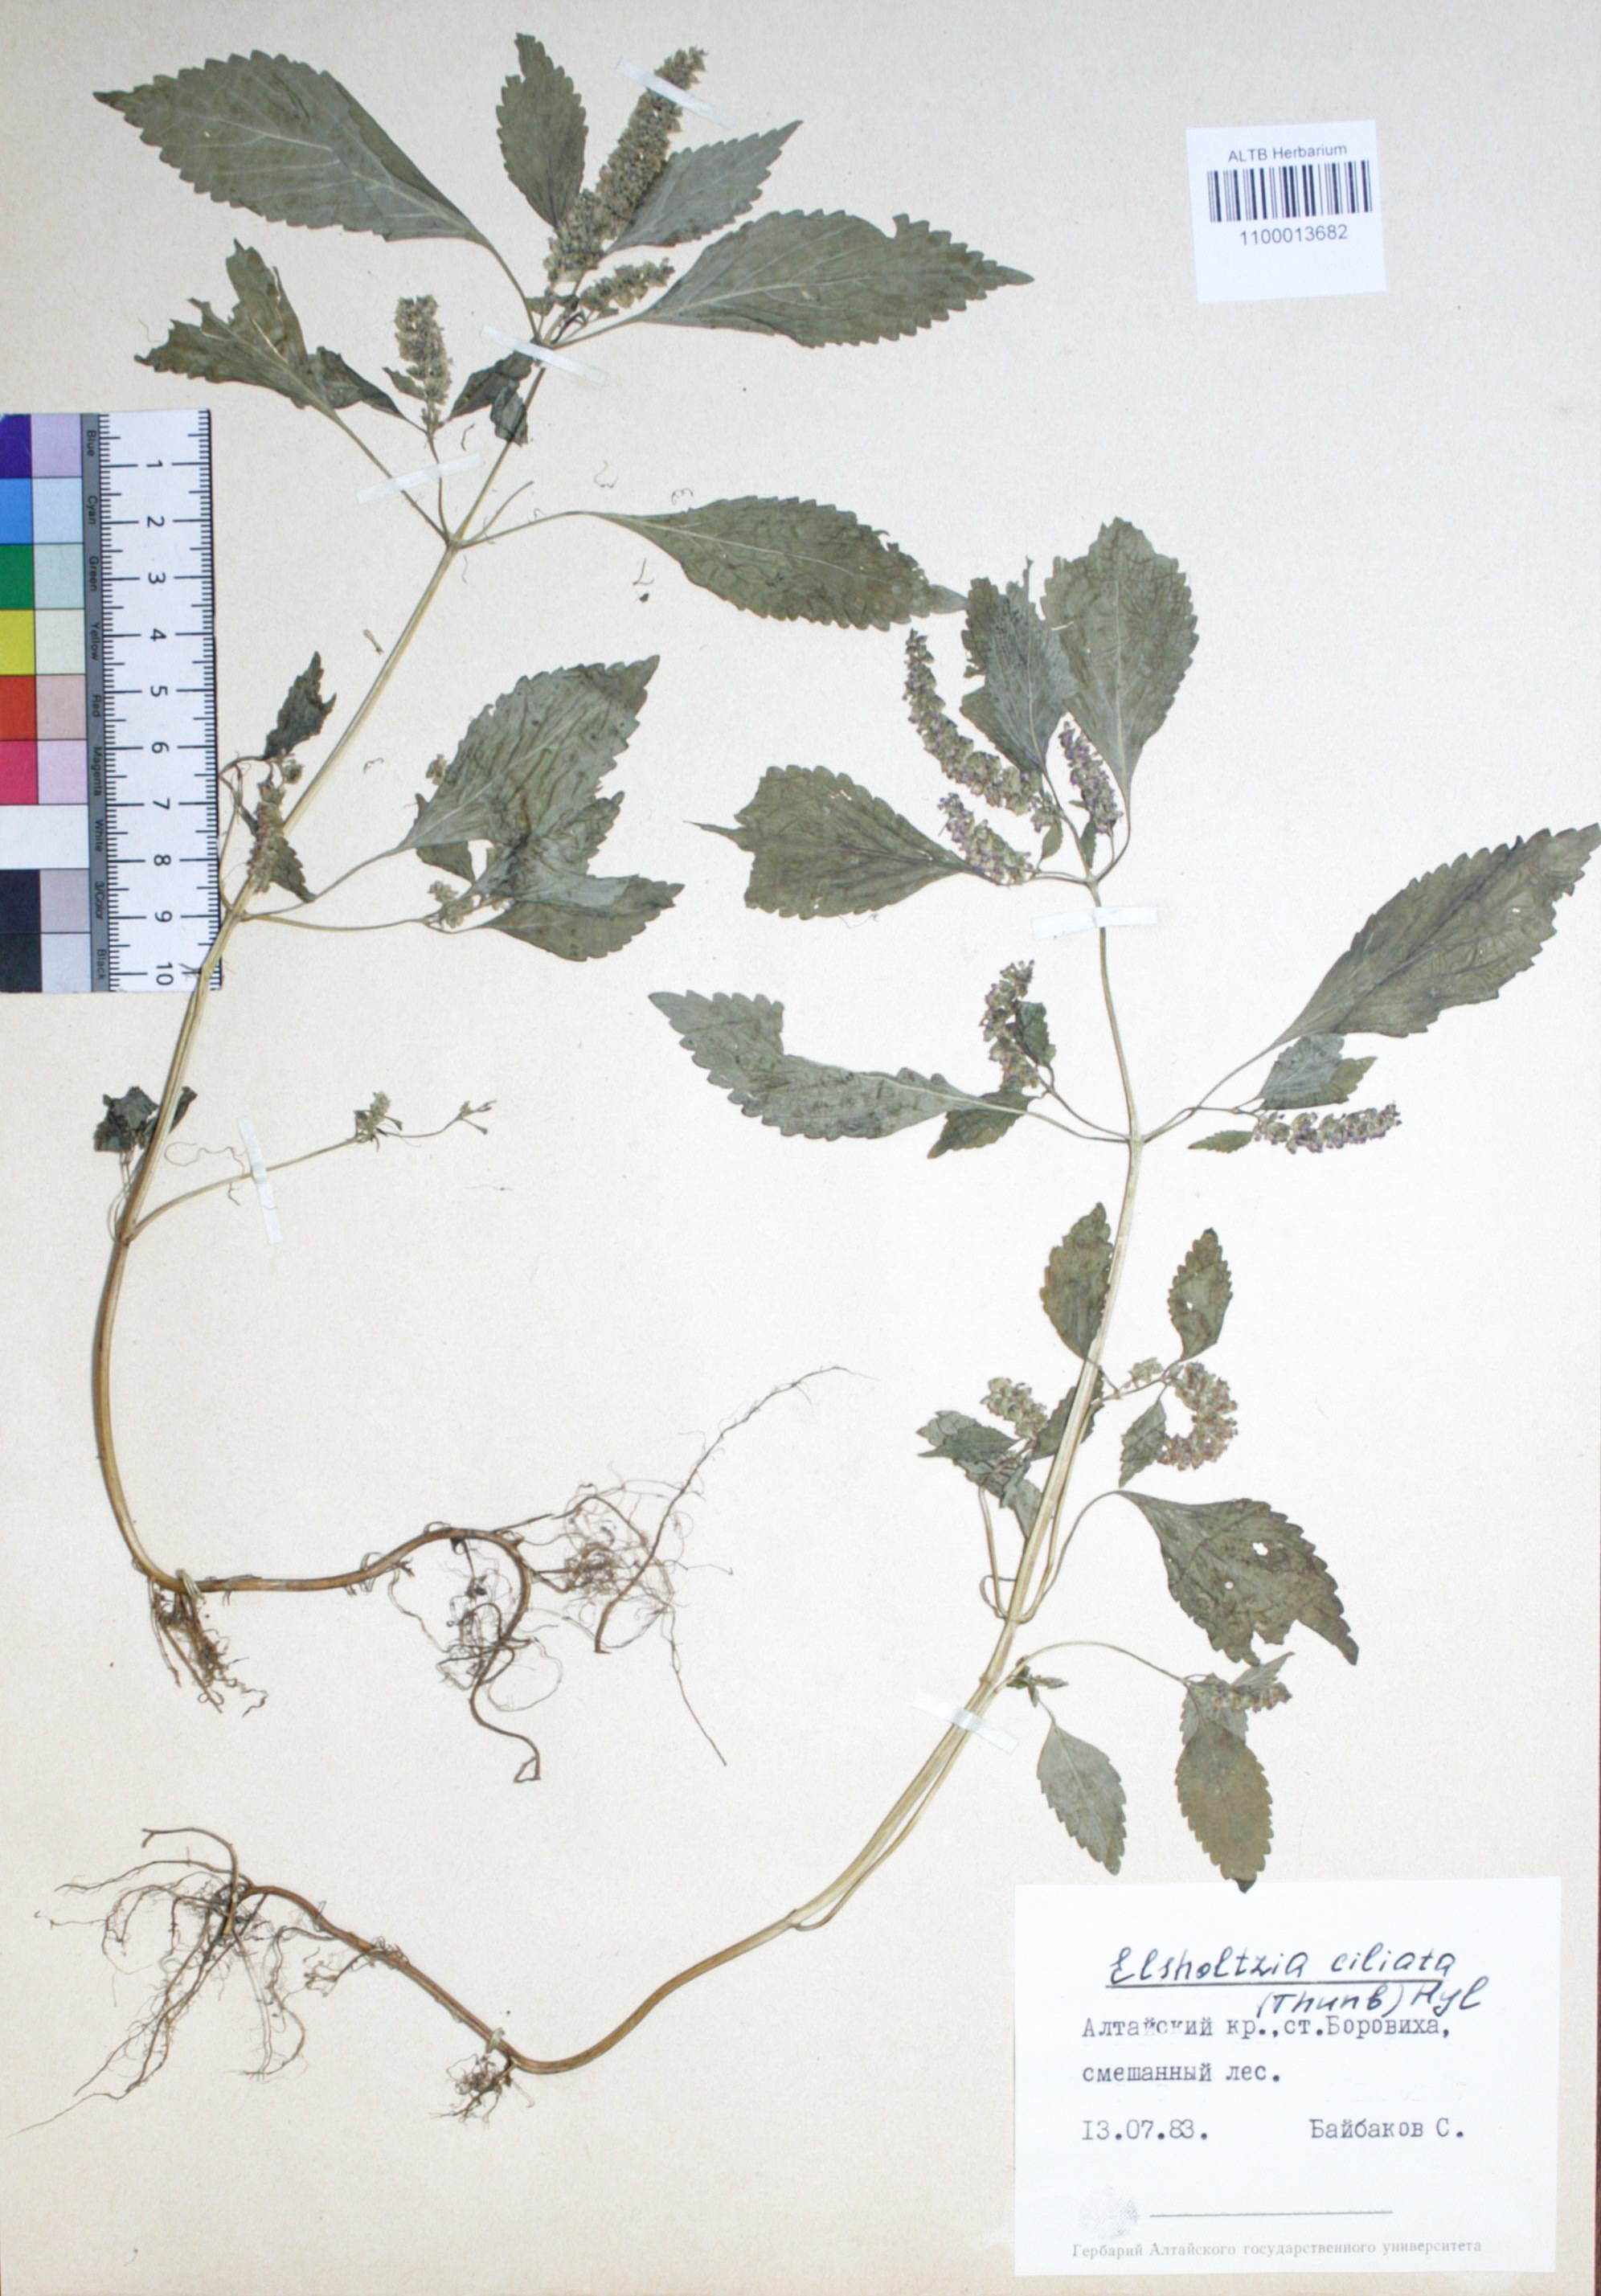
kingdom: Plantae
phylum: Tracheophyta
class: Magnoliopsida
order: Lamiales
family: Lamiaceae
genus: Elsholtzia
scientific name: Elsholtzia ciliata
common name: Ciliate elsholtzia
